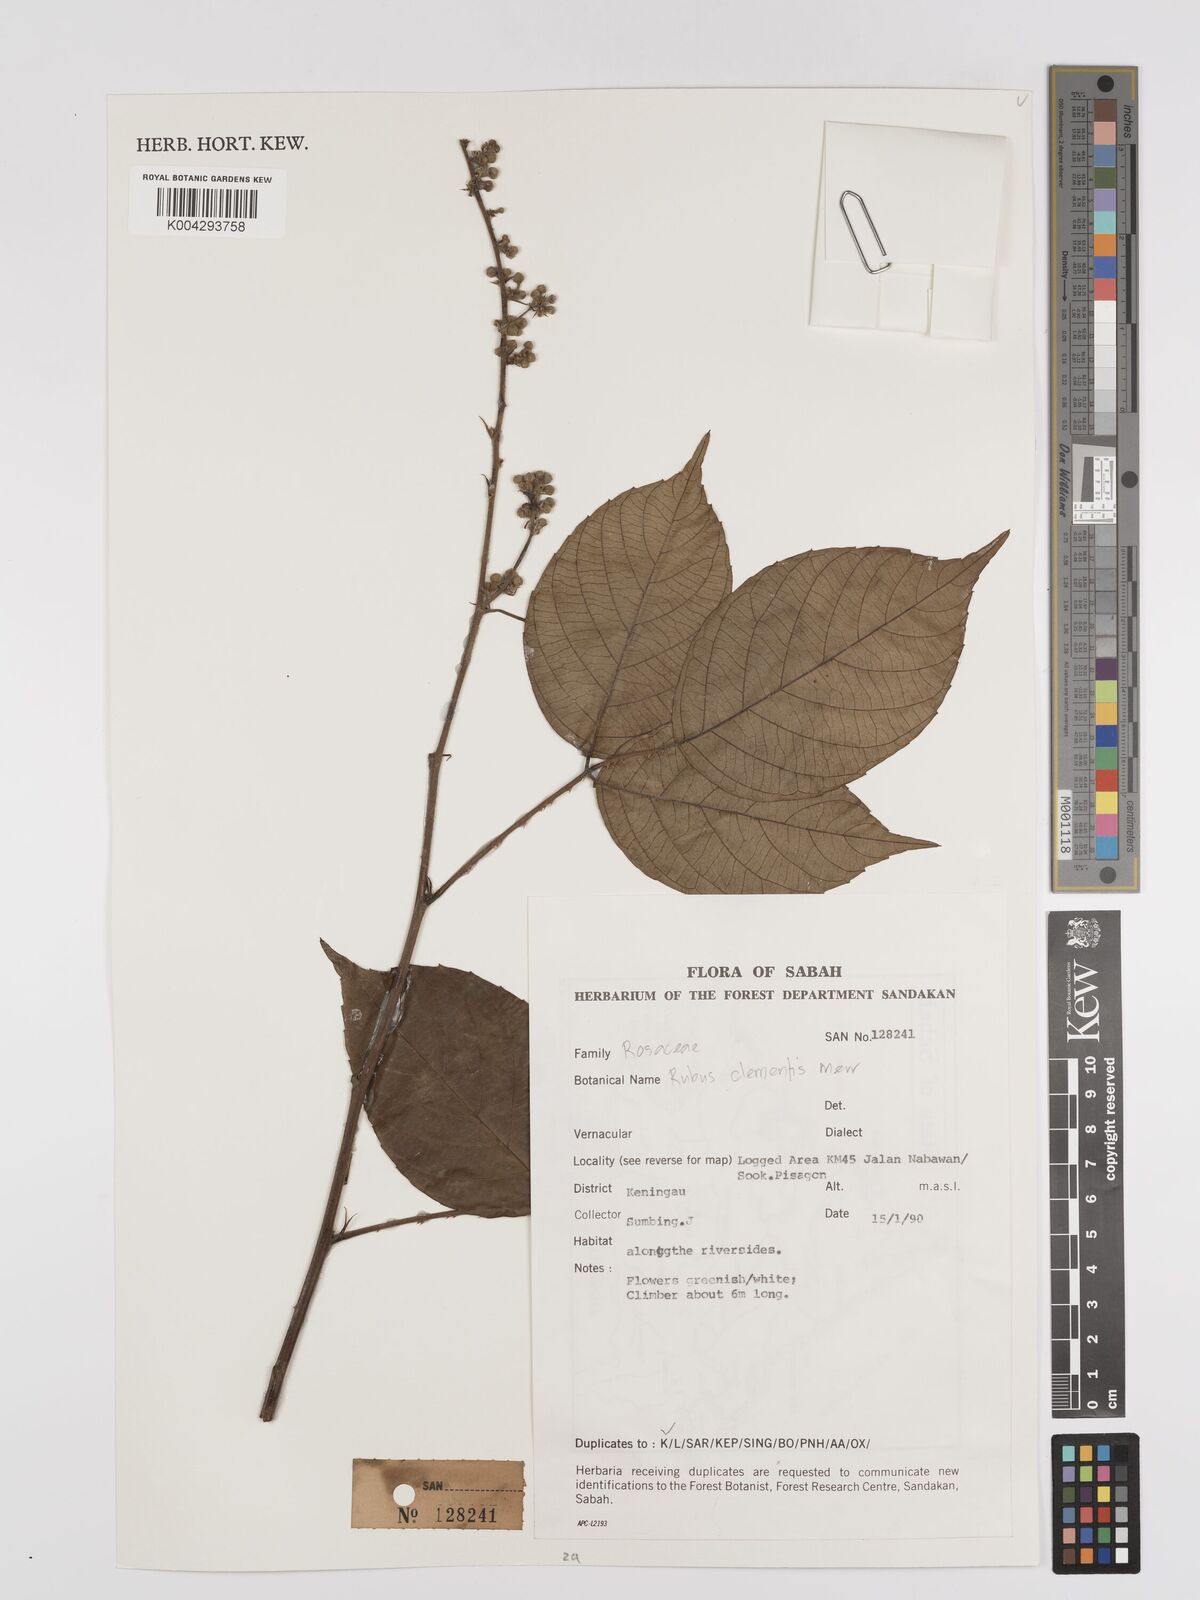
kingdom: Plantae
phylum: Tracheophyta
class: Magnoliopsida
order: Rosales
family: Rosaceae
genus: Rubus
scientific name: Rubus clementis
